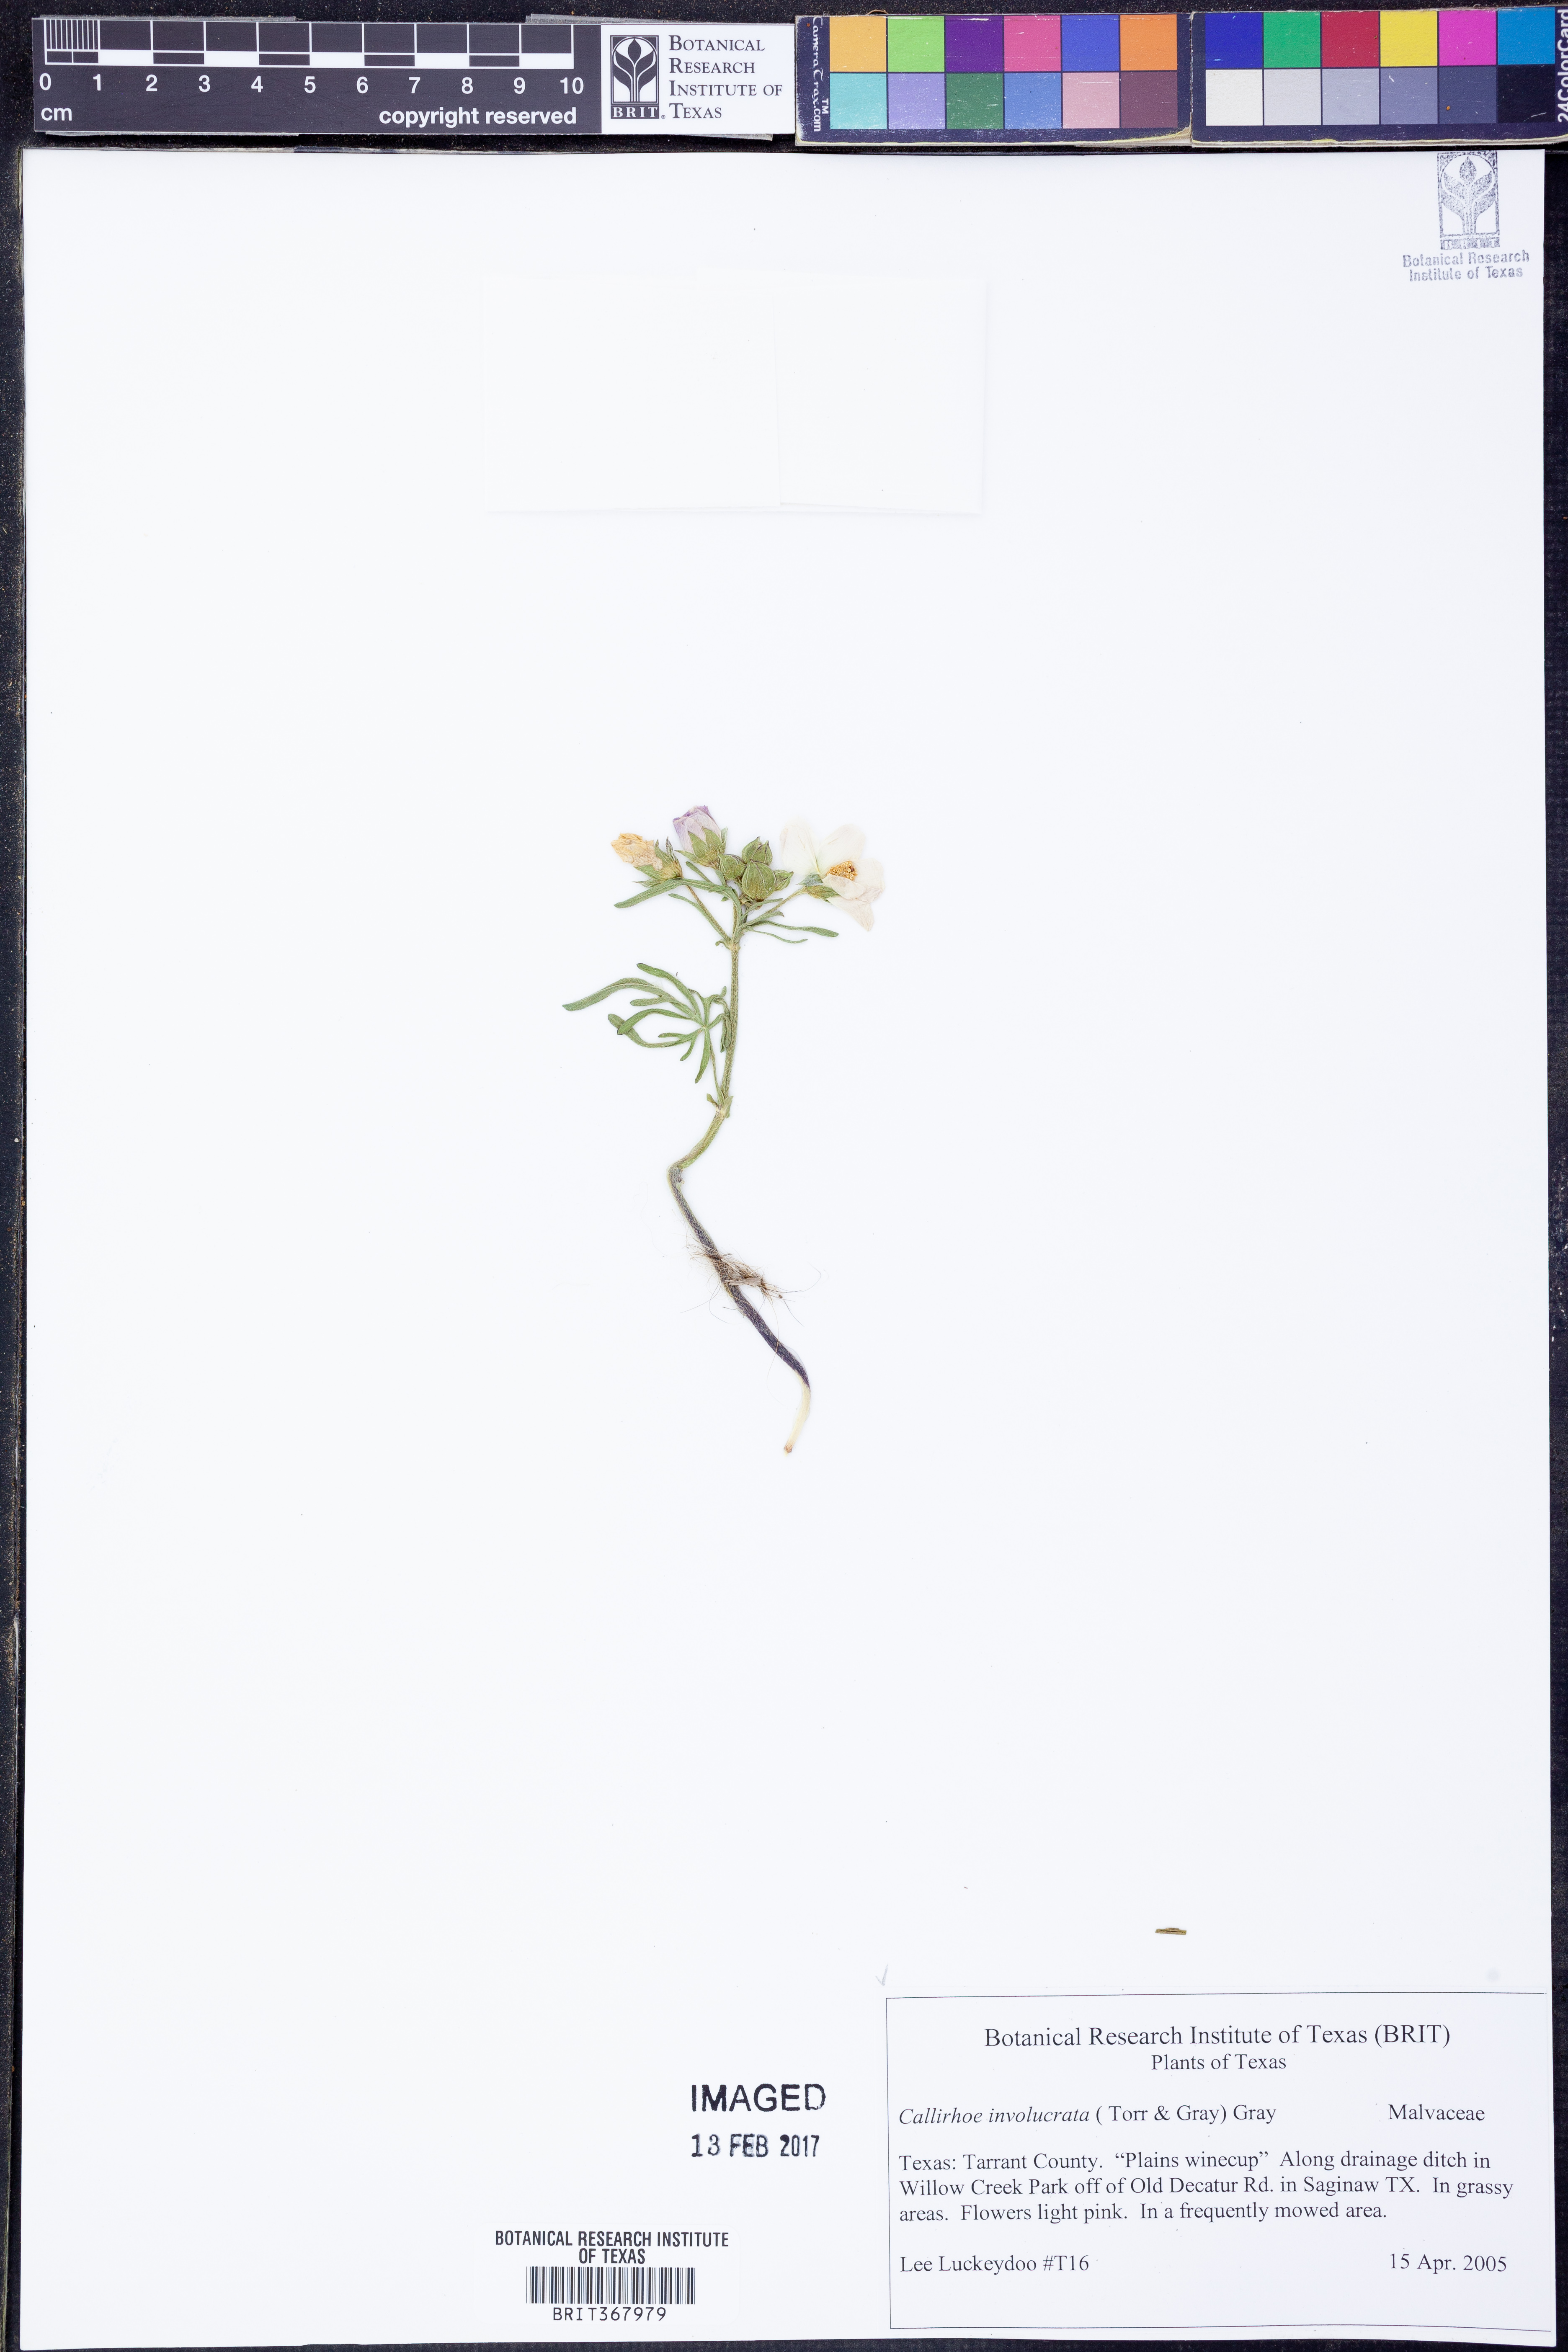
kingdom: Plantae
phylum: Tracheophyta
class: Magnoliopsida
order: Malvales
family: Malvaceae
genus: Callirhoe
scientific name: Callirhoe involucrata
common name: Purple poppy-mallow
